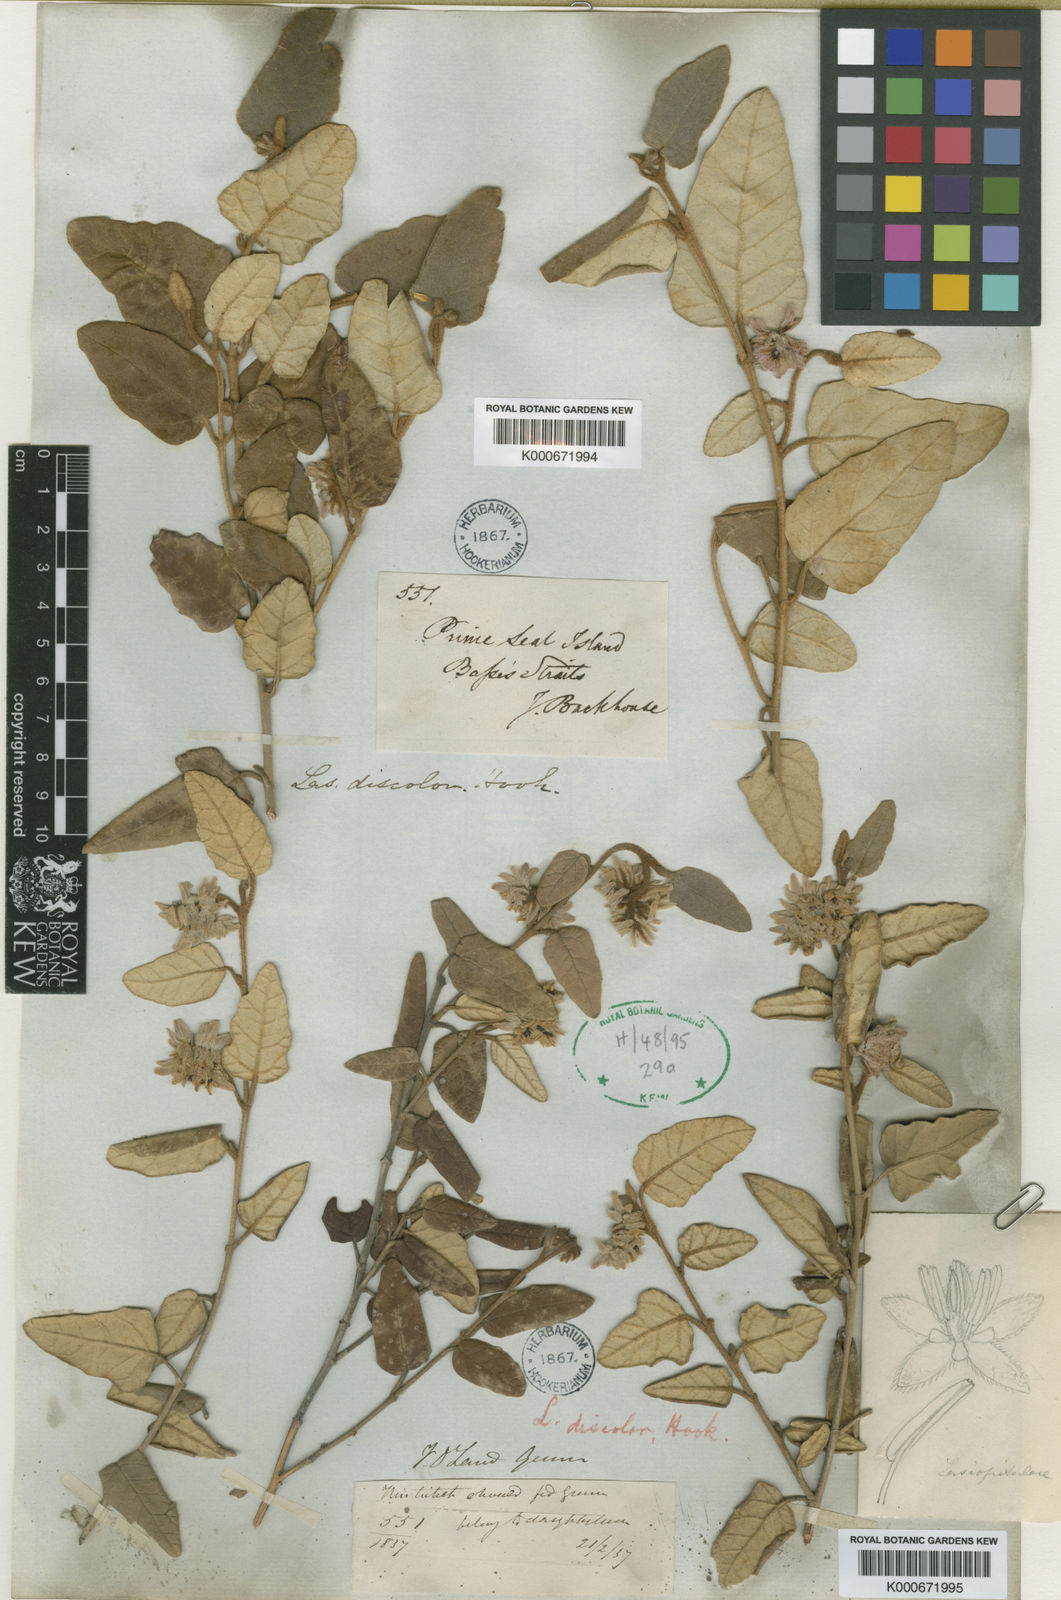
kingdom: Plantae
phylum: Tracheophyta
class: Magnoliopsida
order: Malvales
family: Malvaceae
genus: Lasiopetalum
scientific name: Lasiopetalum discolor
